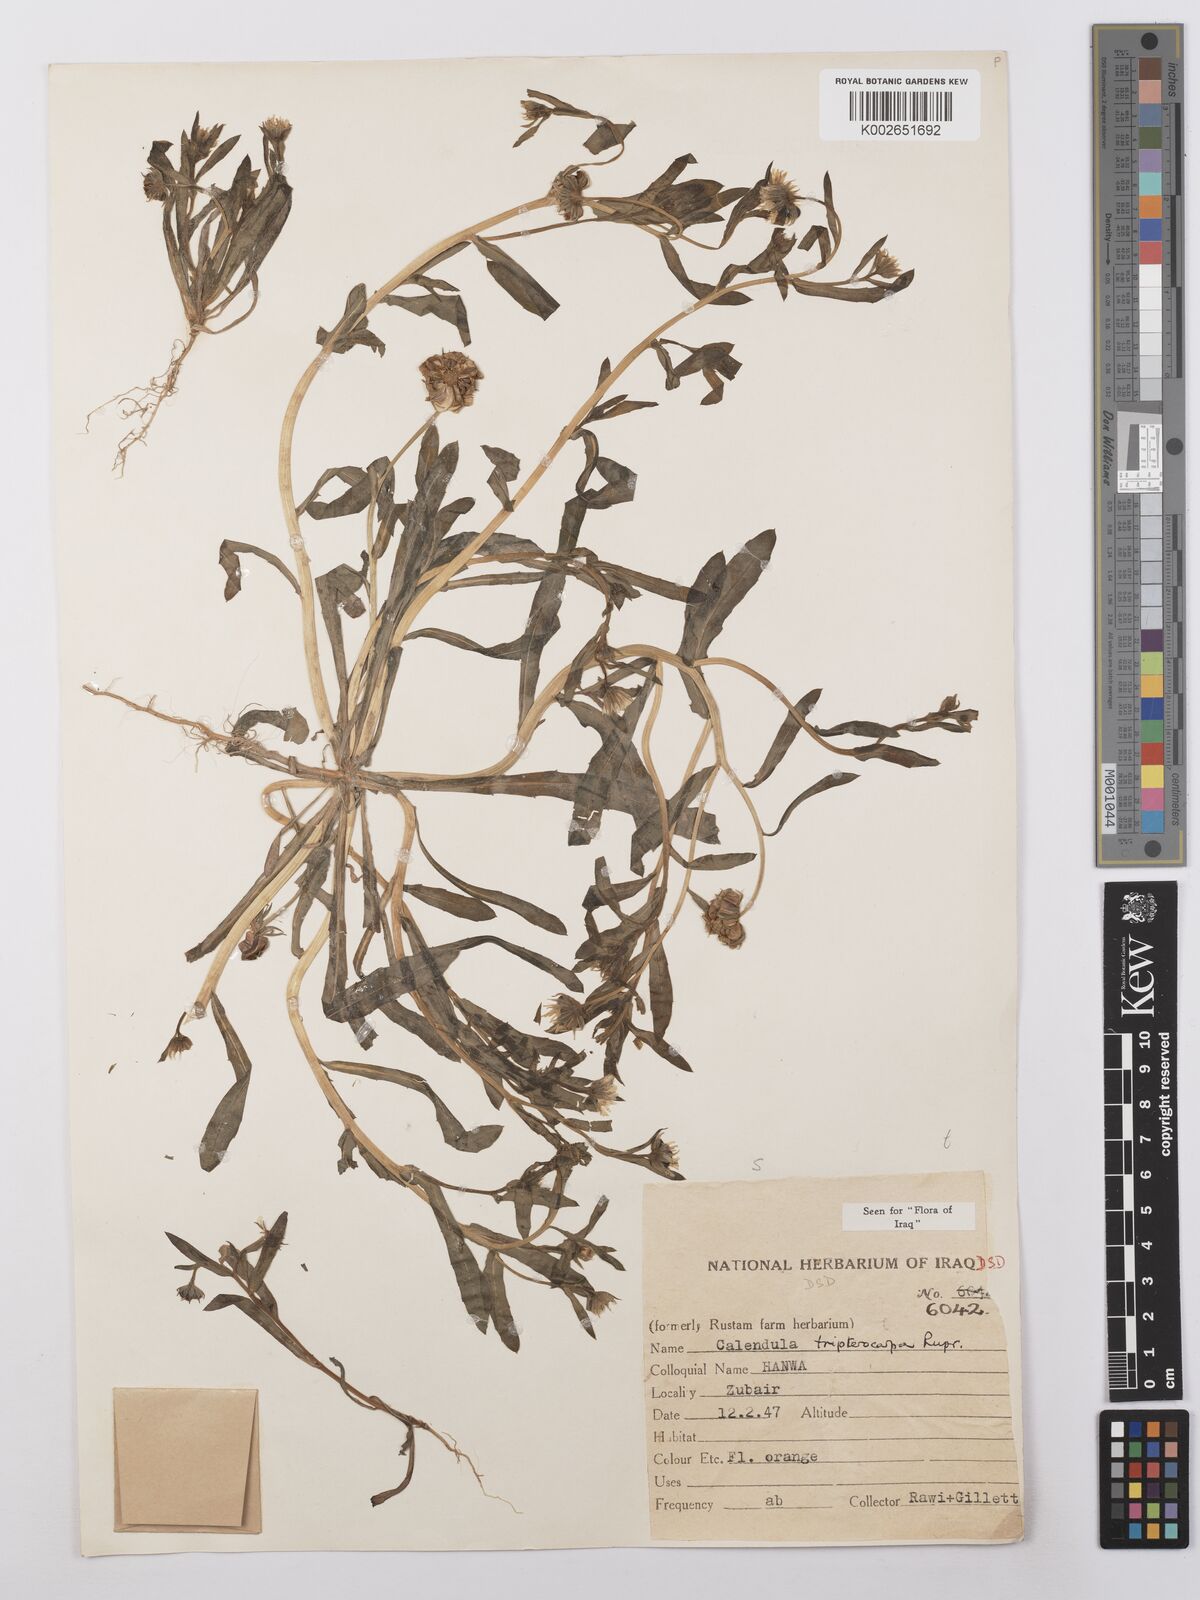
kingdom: Plantae
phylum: Tracheophyta
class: Magnoliopsida
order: Asterales
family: Asteraceae
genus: Calendula
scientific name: Calendula tripterocarpa
